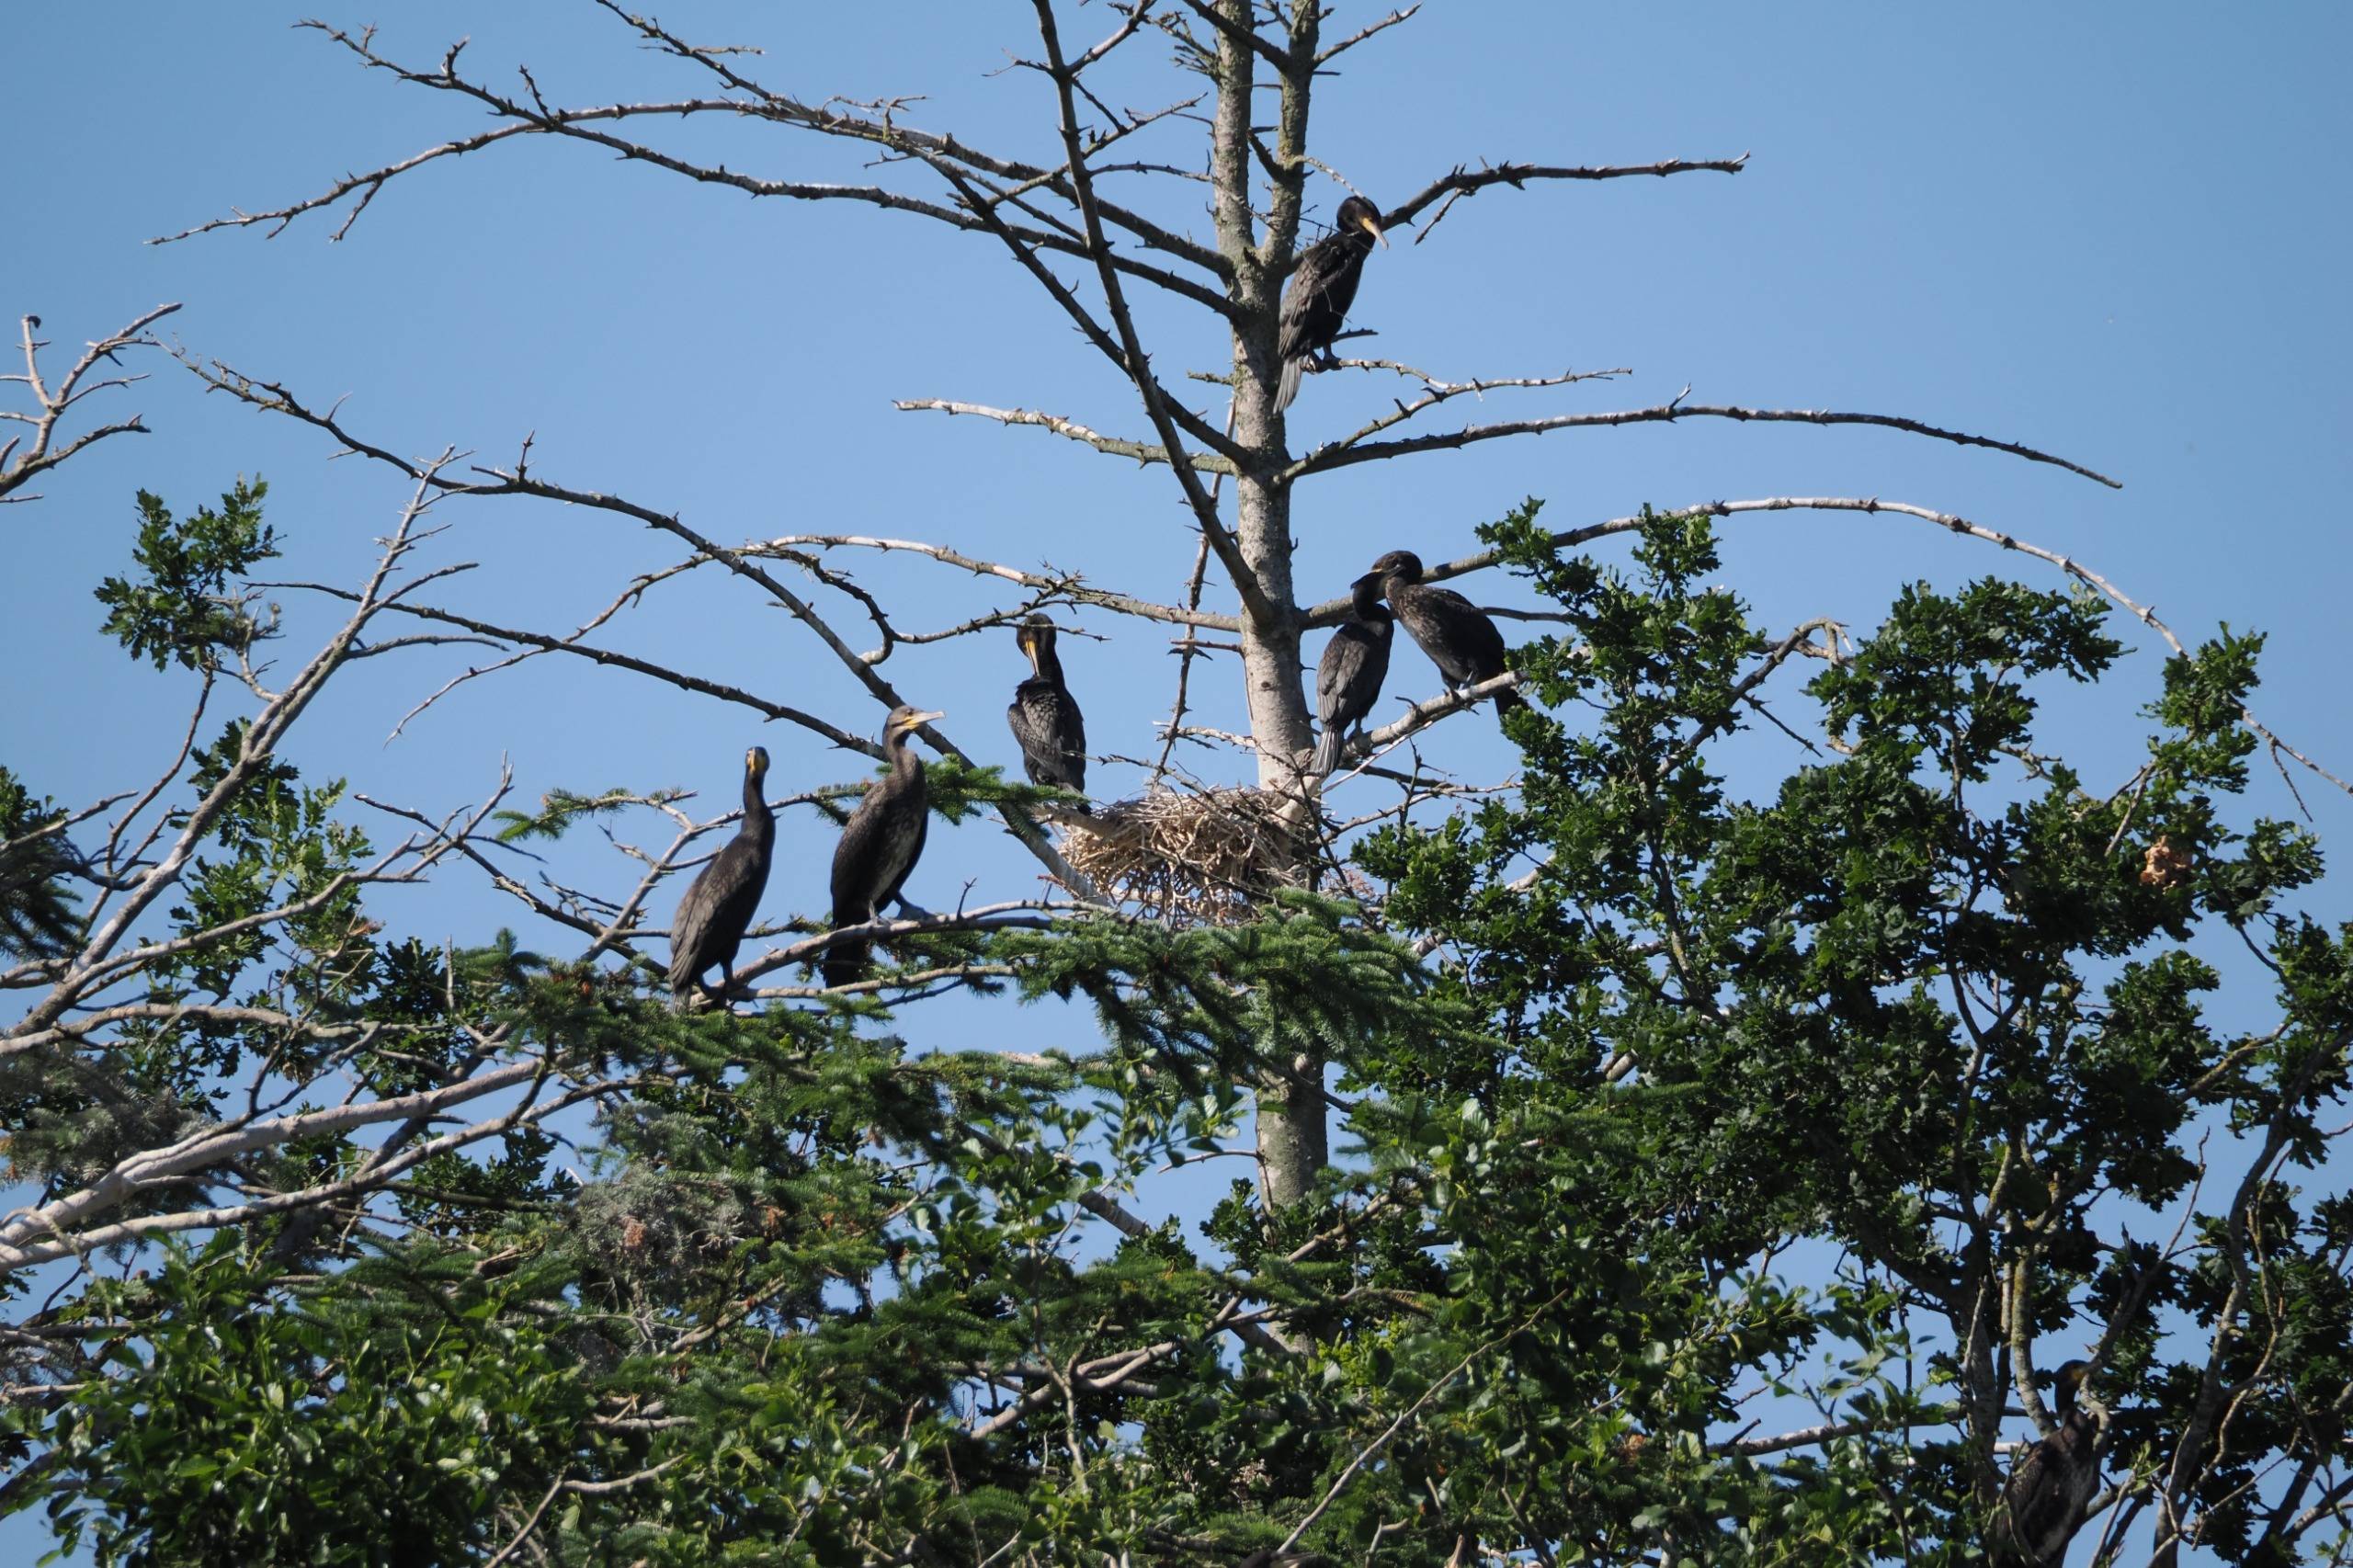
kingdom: Animalia
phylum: Chordata
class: Aves
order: Suliformes
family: Phalacrocoracidae
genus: Phalacrocorax
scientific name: Phalacrocorax carbo
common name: Skarv
